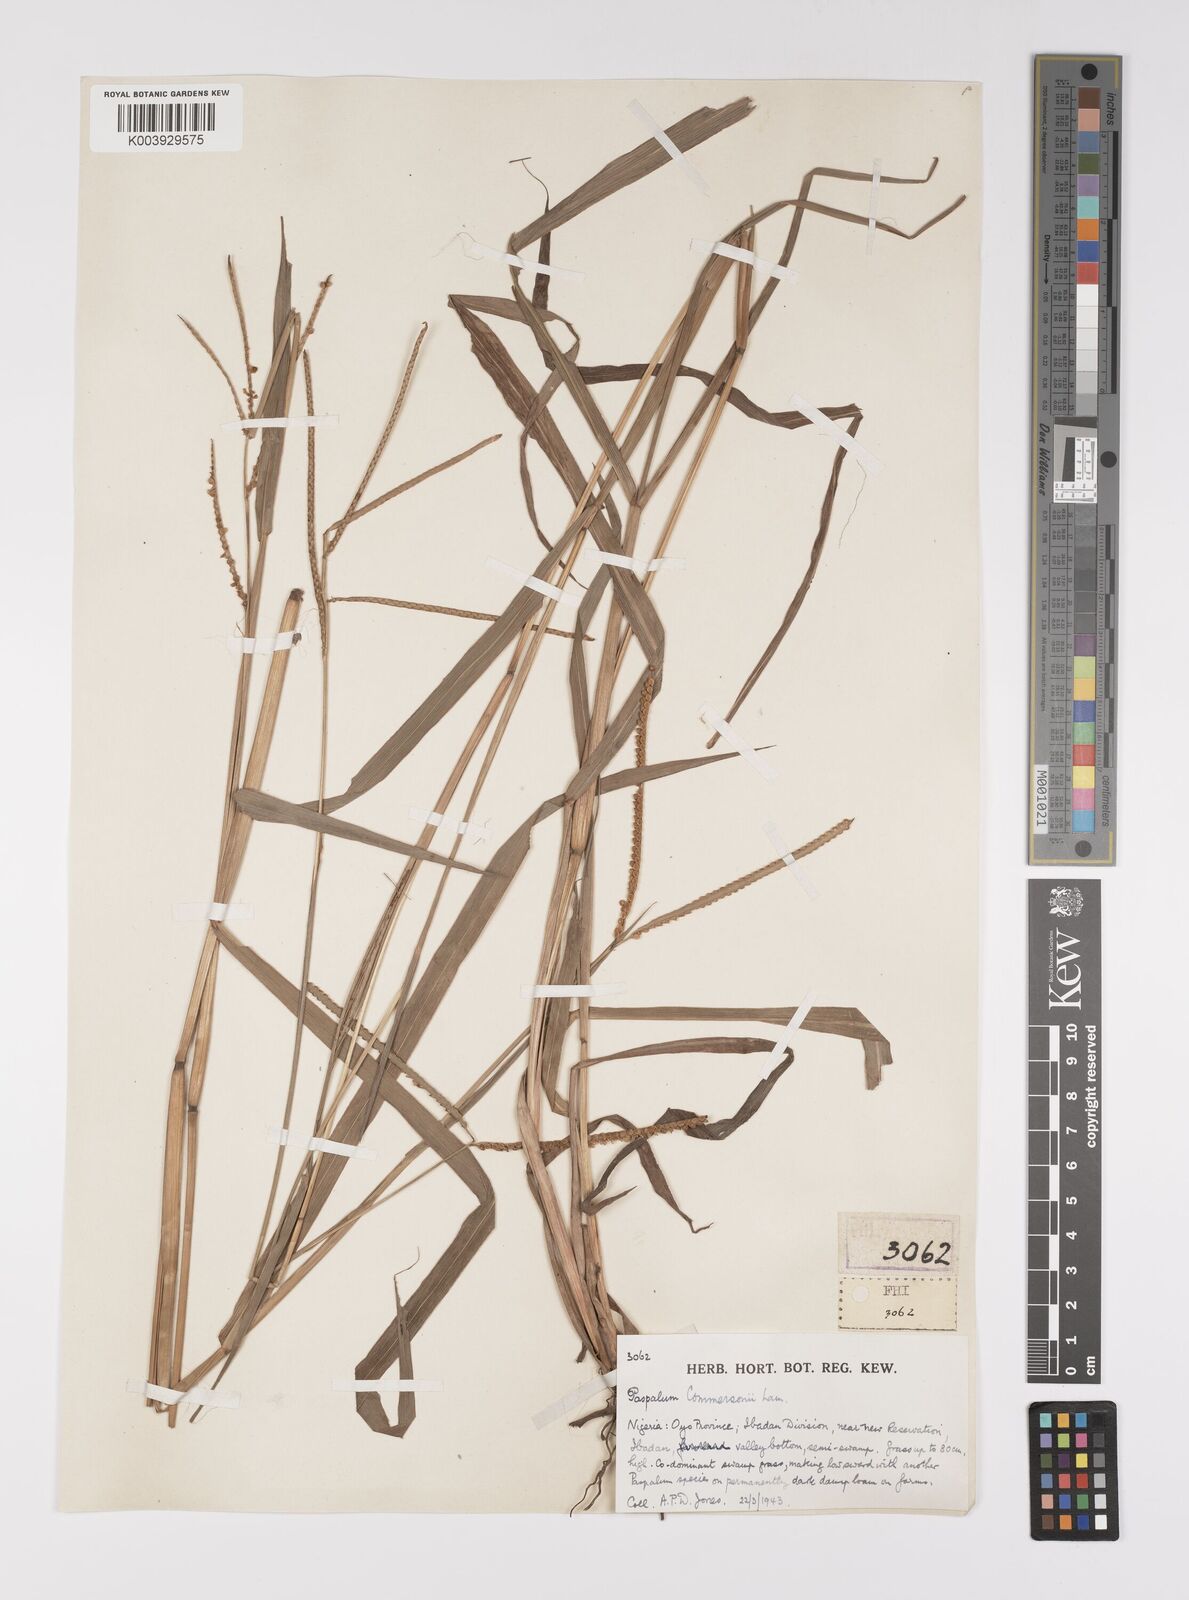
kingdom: Plantae
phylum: Tracheophyta
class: Liliopsida
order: Poales
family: Poaceae
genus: Paspalum
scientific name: Paspalum scrobiculatum
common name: Kodo millet
